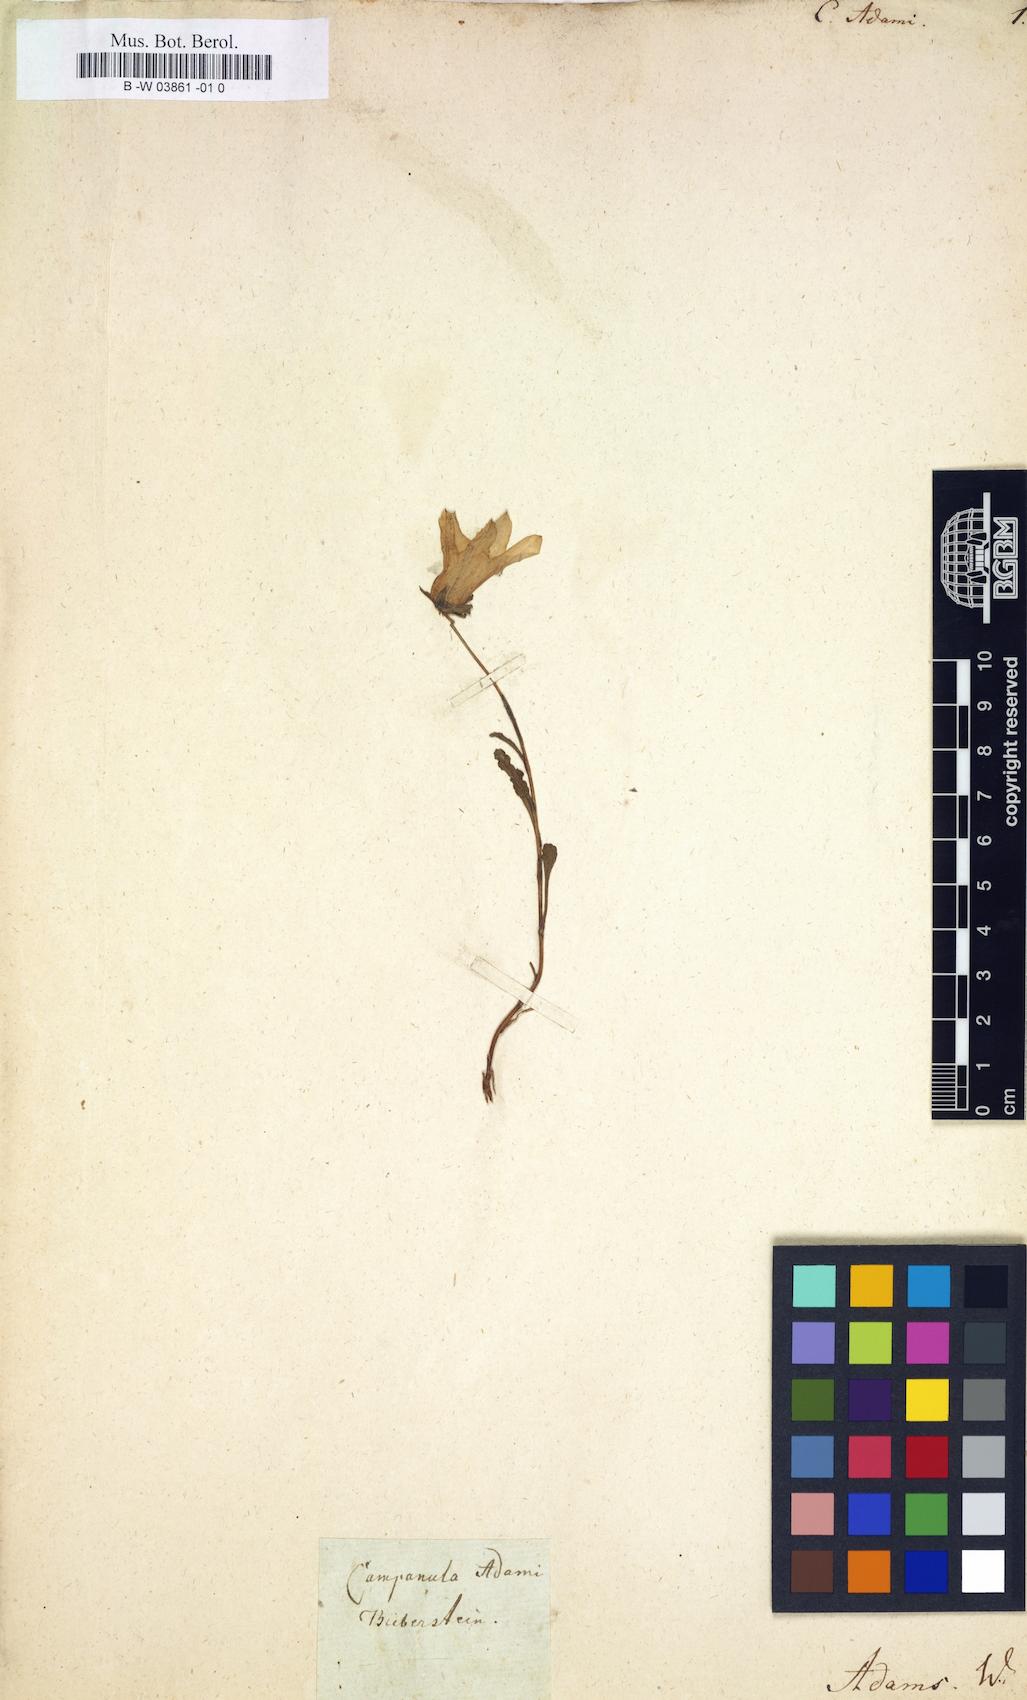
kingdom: Plantae
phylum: Tracheophyta
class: Magnoliopsida
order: Asterales
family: Campanulaceae
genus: Campanula
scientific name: Campanula bellidifolia
